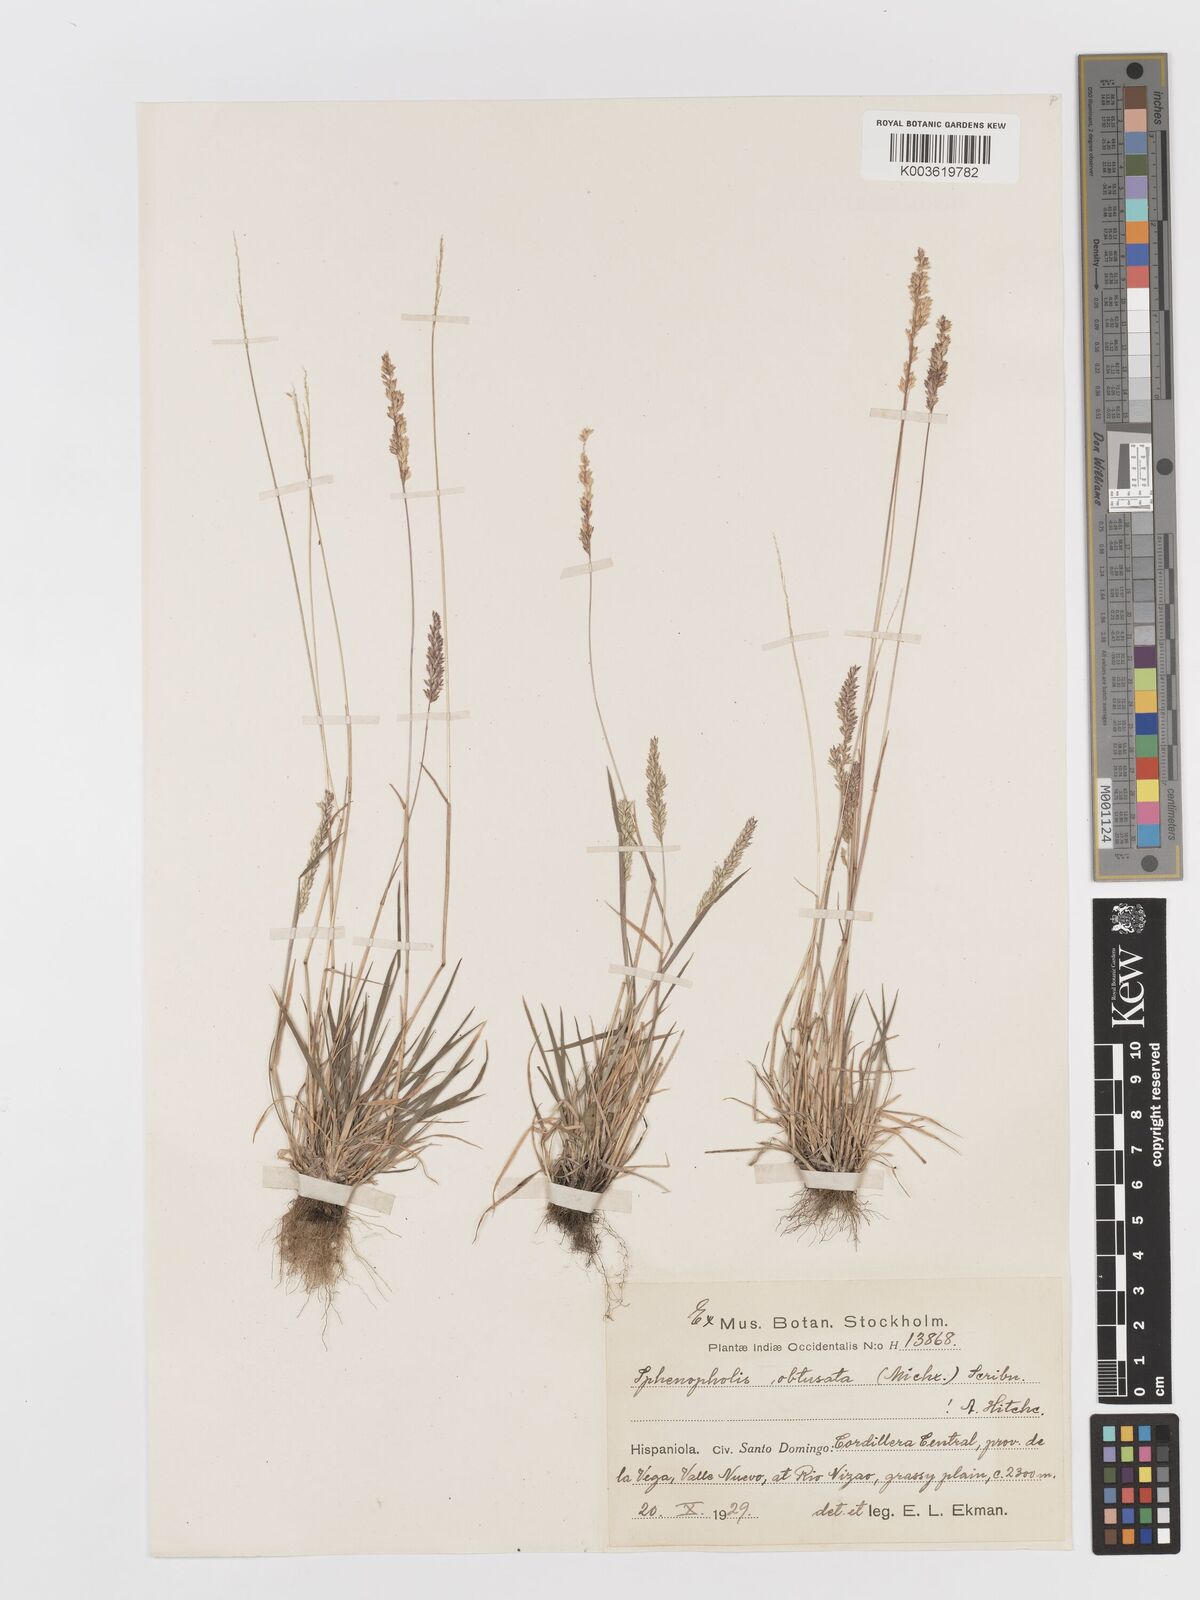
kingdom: Plantae
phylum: Tracheophyta
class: Liliopsida
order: Poales
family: Poaceae
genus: Sphenopholis
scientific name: Sphenopholis obtusata
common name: Prairie grass
